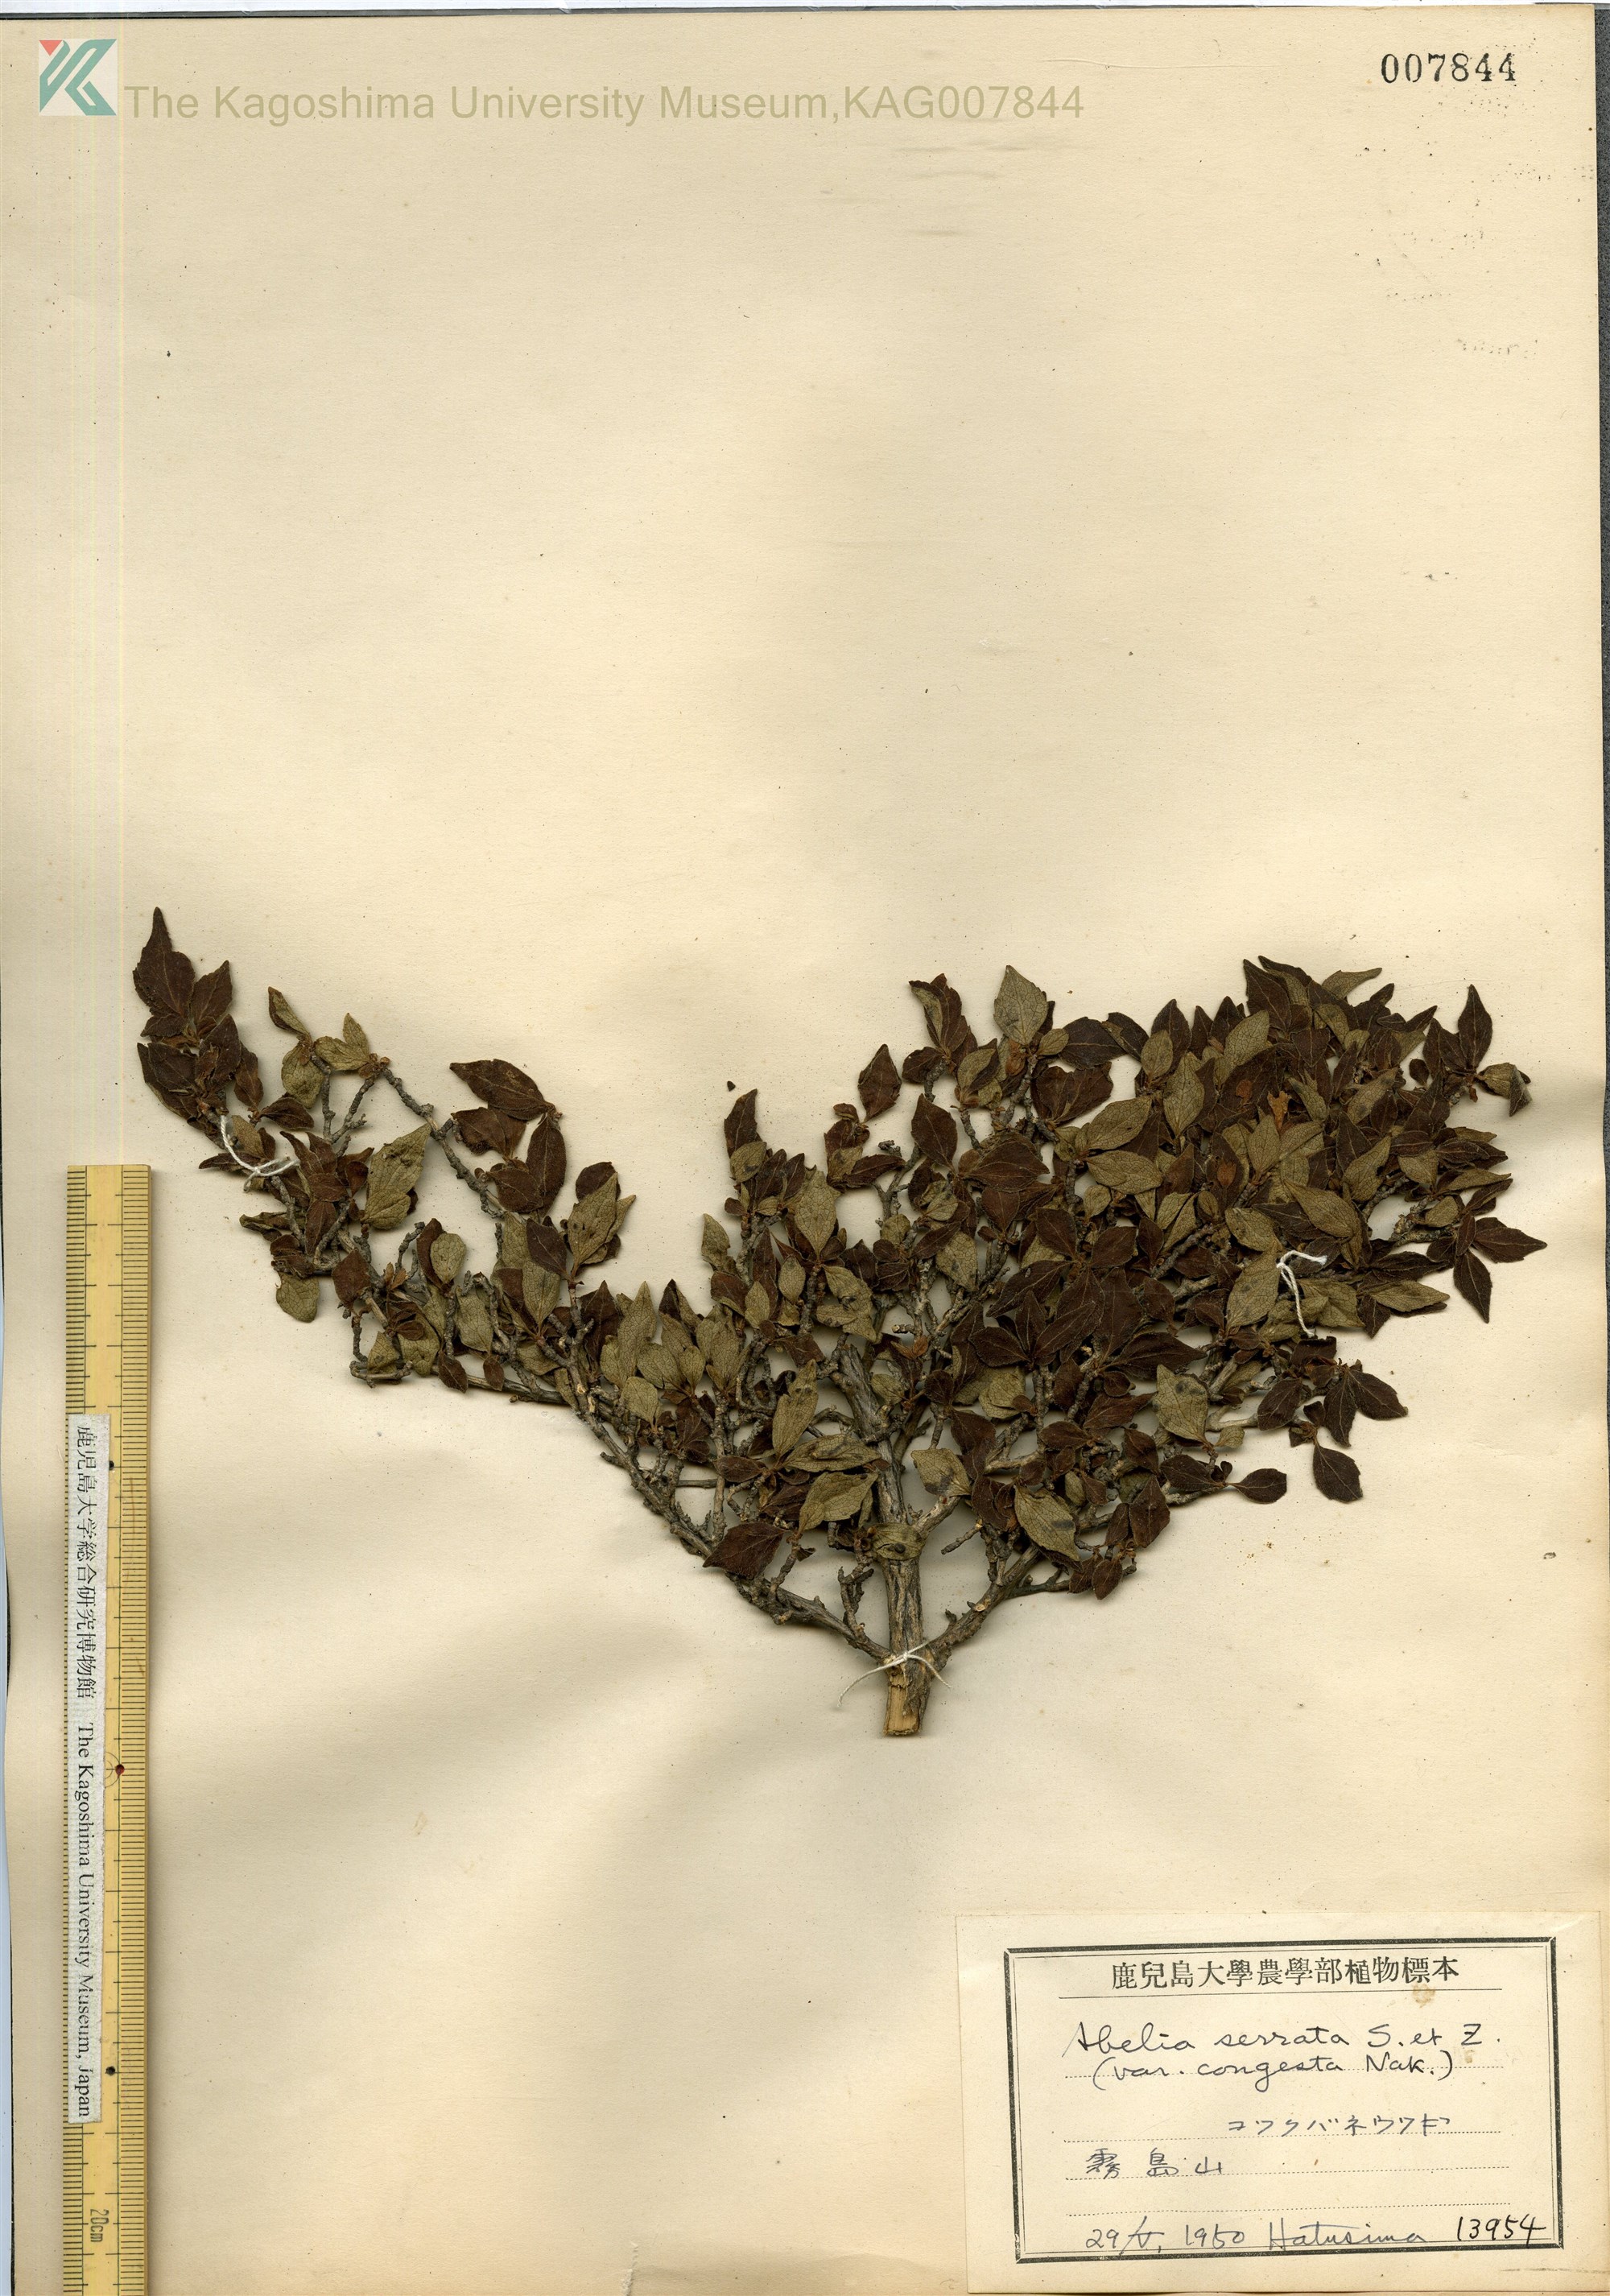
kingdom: Plantae
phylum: Tracheophyta
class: Magnoliopsida
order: Dipsacales
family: Caprifoliaceae
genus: Diabelia
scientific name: Diabelia serrata
